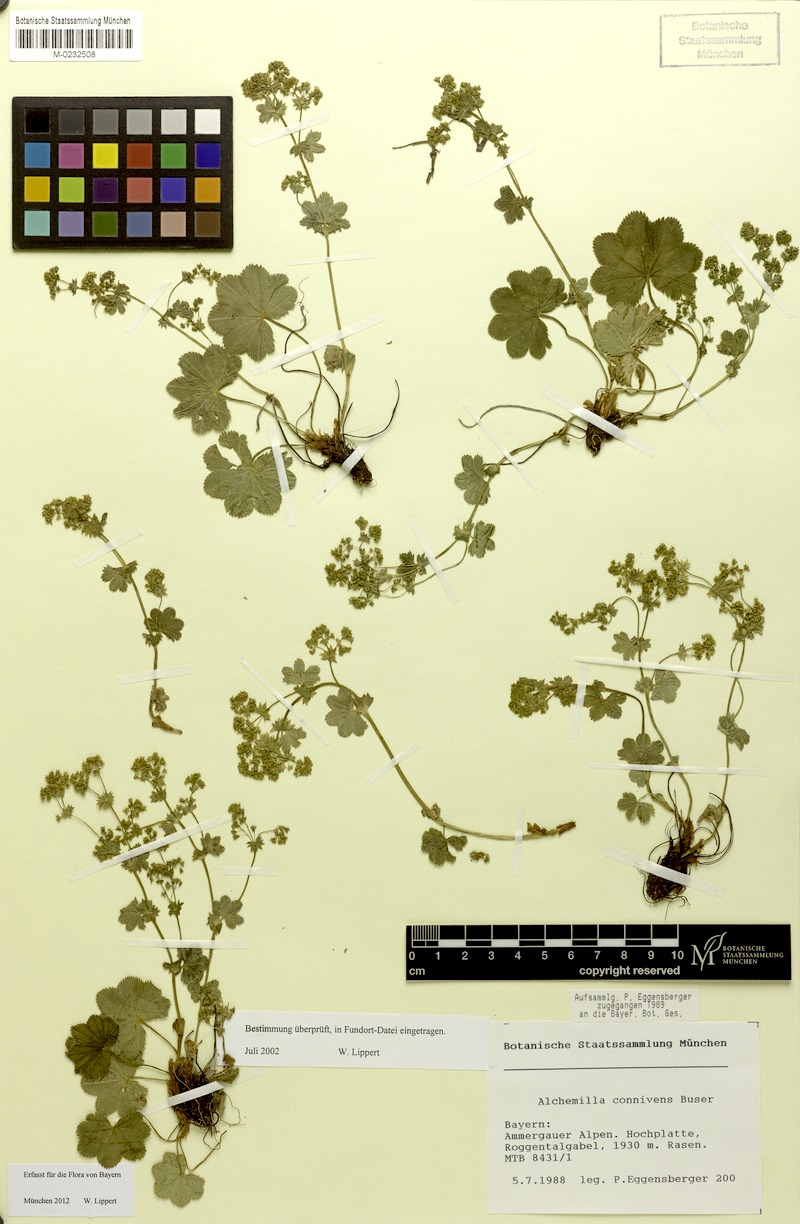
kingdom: Plantae
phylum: Tracheophyta
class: Magnoliopsida
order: Rosales
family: Rosaceae
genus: Alchemilla
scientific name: Alchemilla connivens
